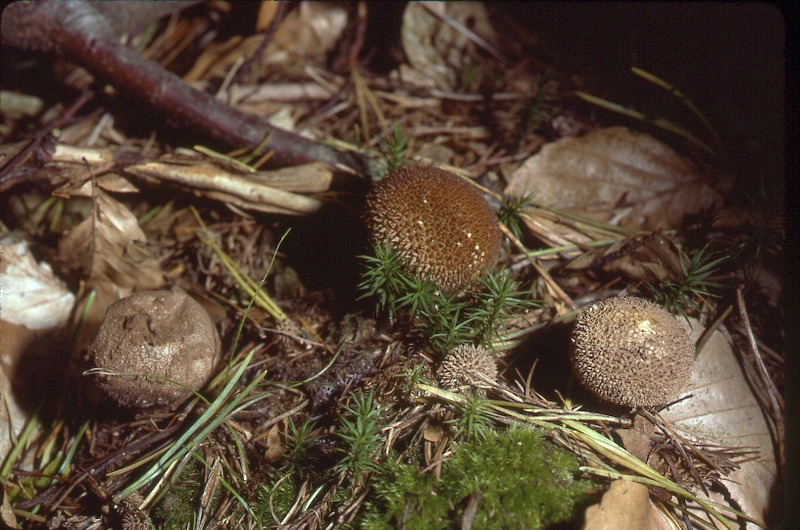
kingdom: Fungi
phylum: Basidiomycota
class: Agaricomycetes
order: Agaricales
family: Lycoperdaceae
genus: Lycoperdon
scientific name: Lycoperdon echinatum
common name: Hedgehog puffball
